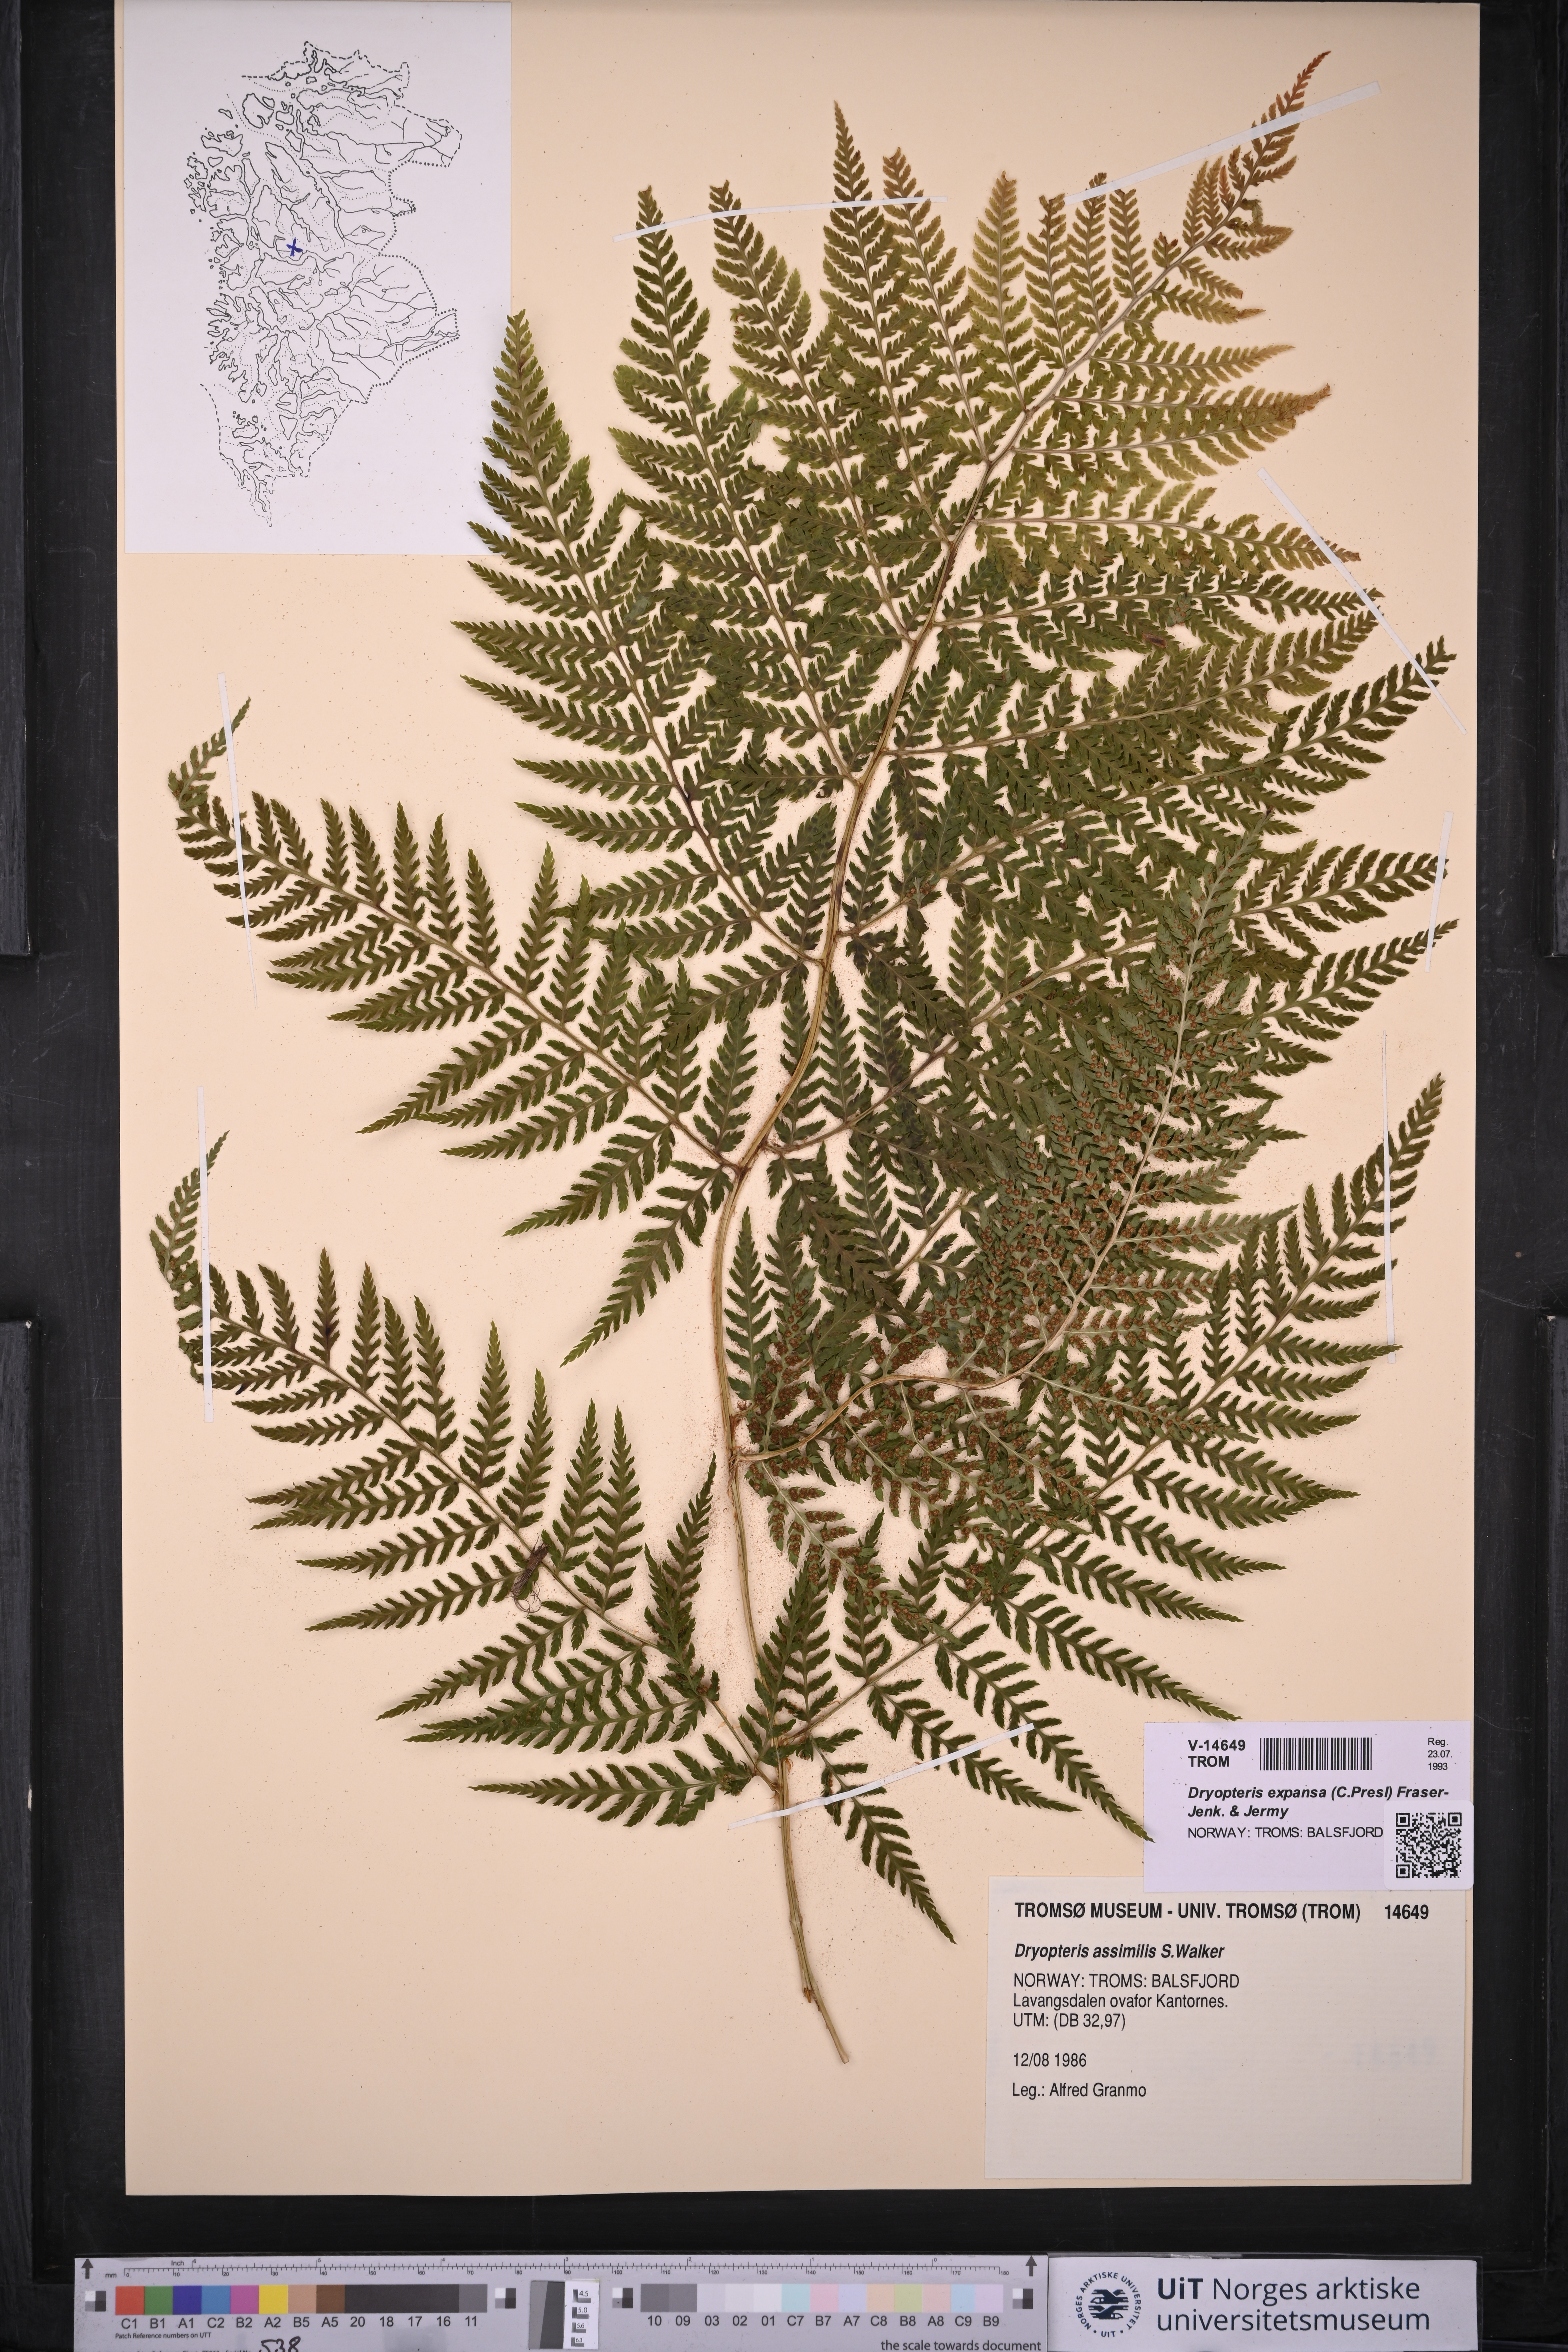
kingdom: Plantae
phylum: Tracheophyta
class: Polypodiopsida
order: Polypodiales
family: Dryopteridaceae
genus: Dryopteris
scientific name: Dryopteris expansa
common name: Northern buckler fern
